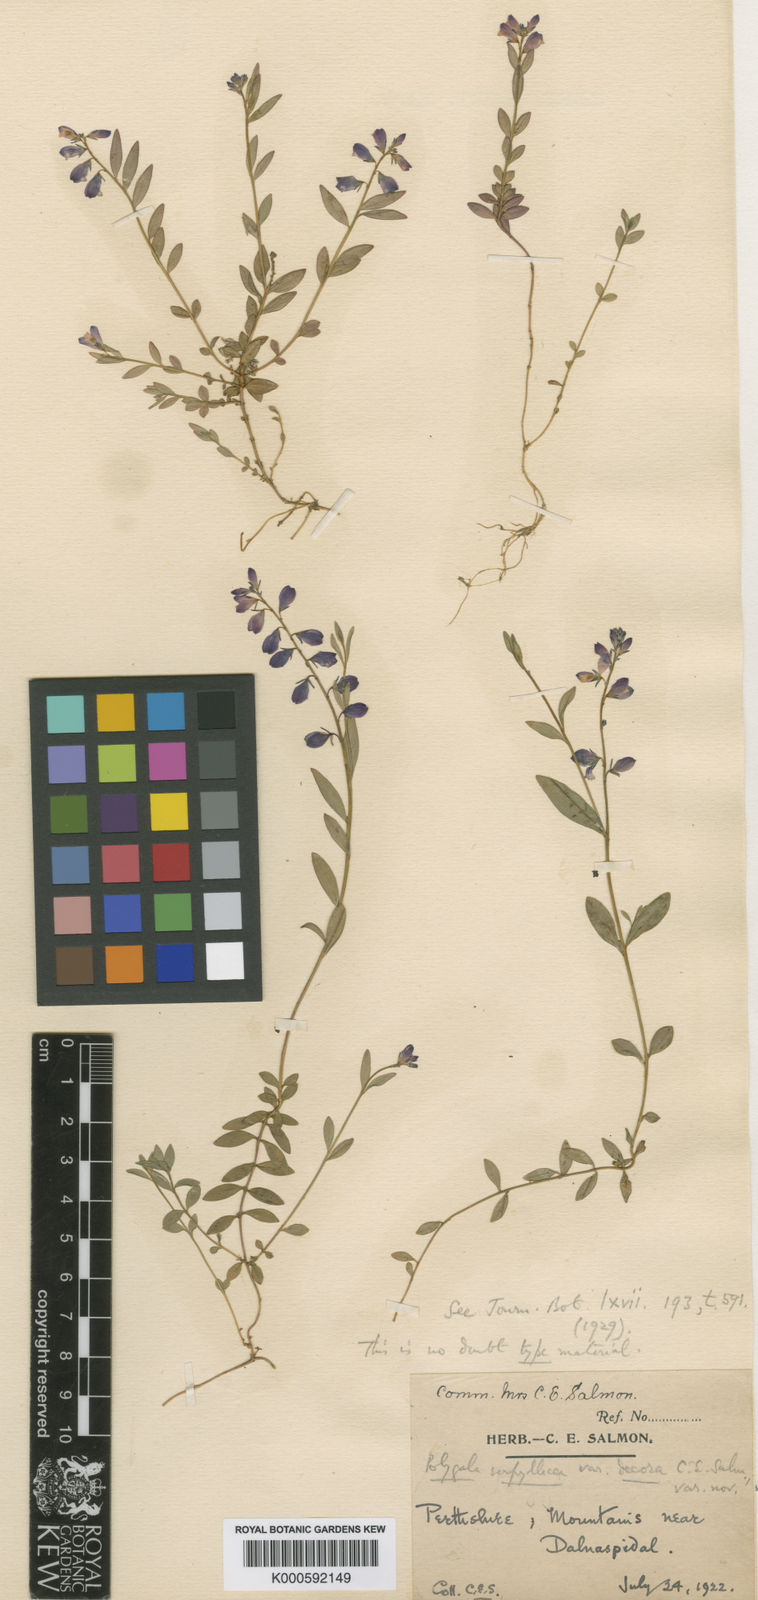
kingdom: Plantae
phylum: Tracheophyta
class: Magnoliopsida
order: Fabales
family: Polygalaceae
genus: Polygala
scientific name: Polygala
